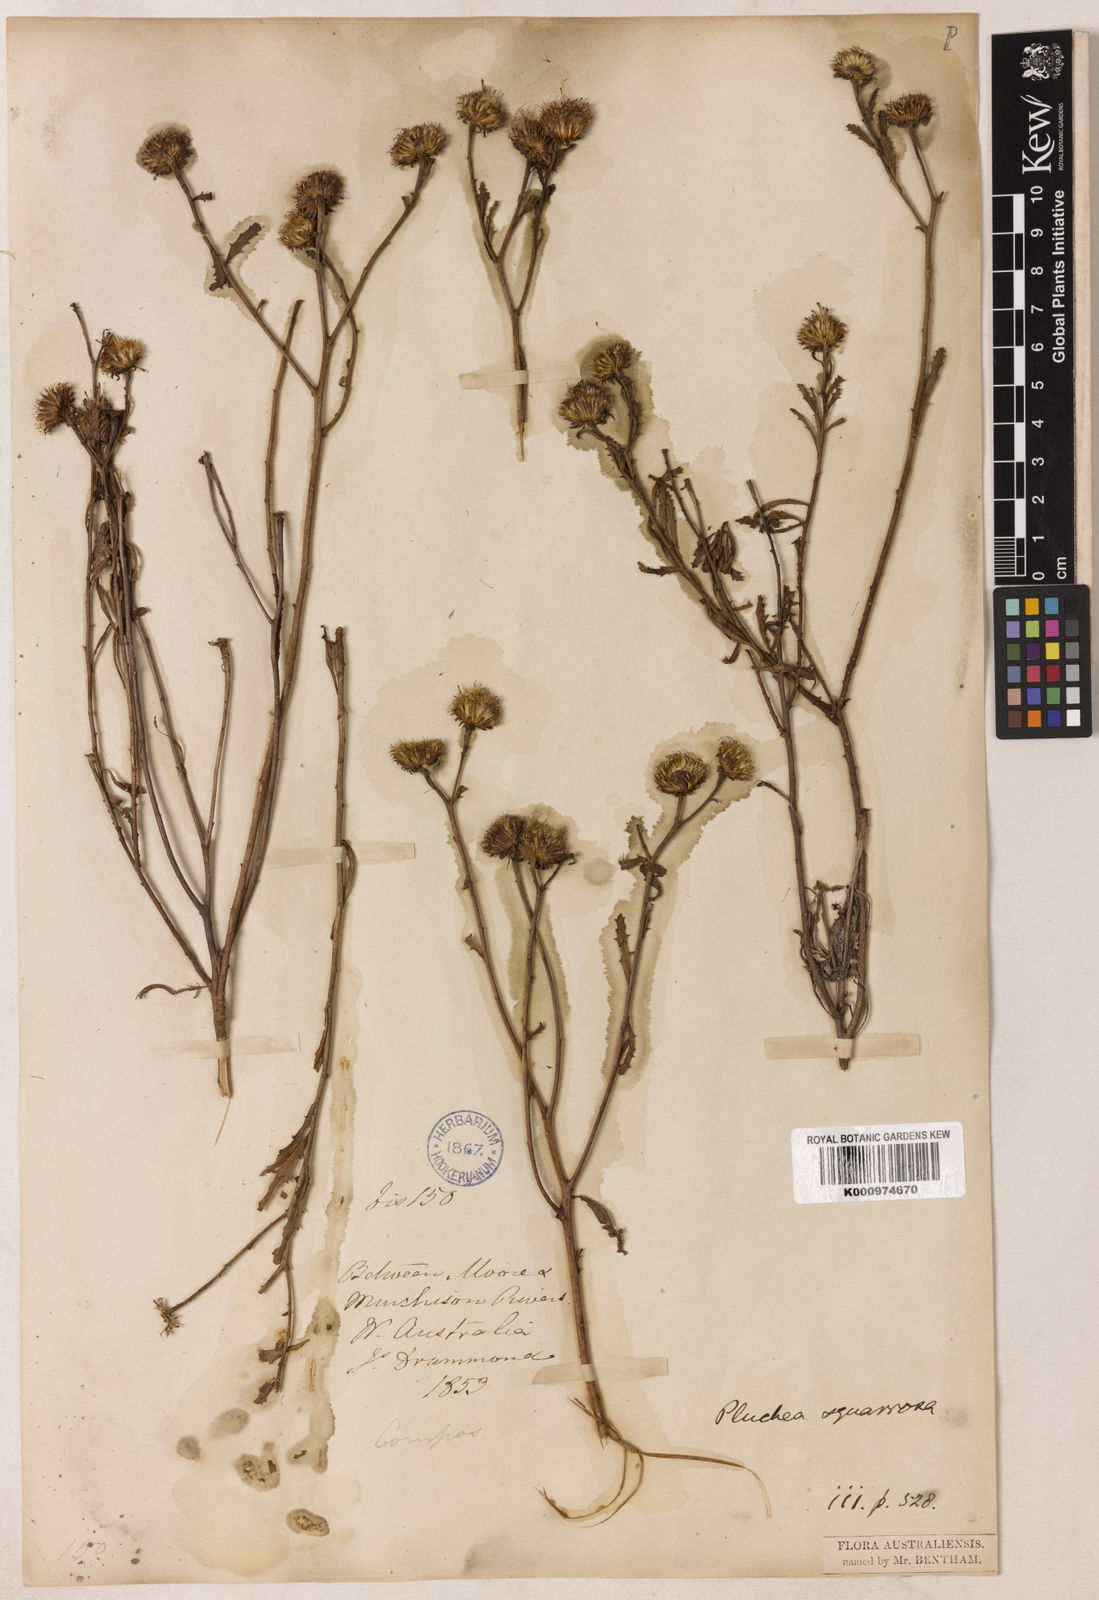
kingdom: Plantae
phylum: Tracheophyta
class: Magnoliopsida
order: Asterales
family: Asteraceae
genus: Pluchea
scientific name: Pluchea dentex
